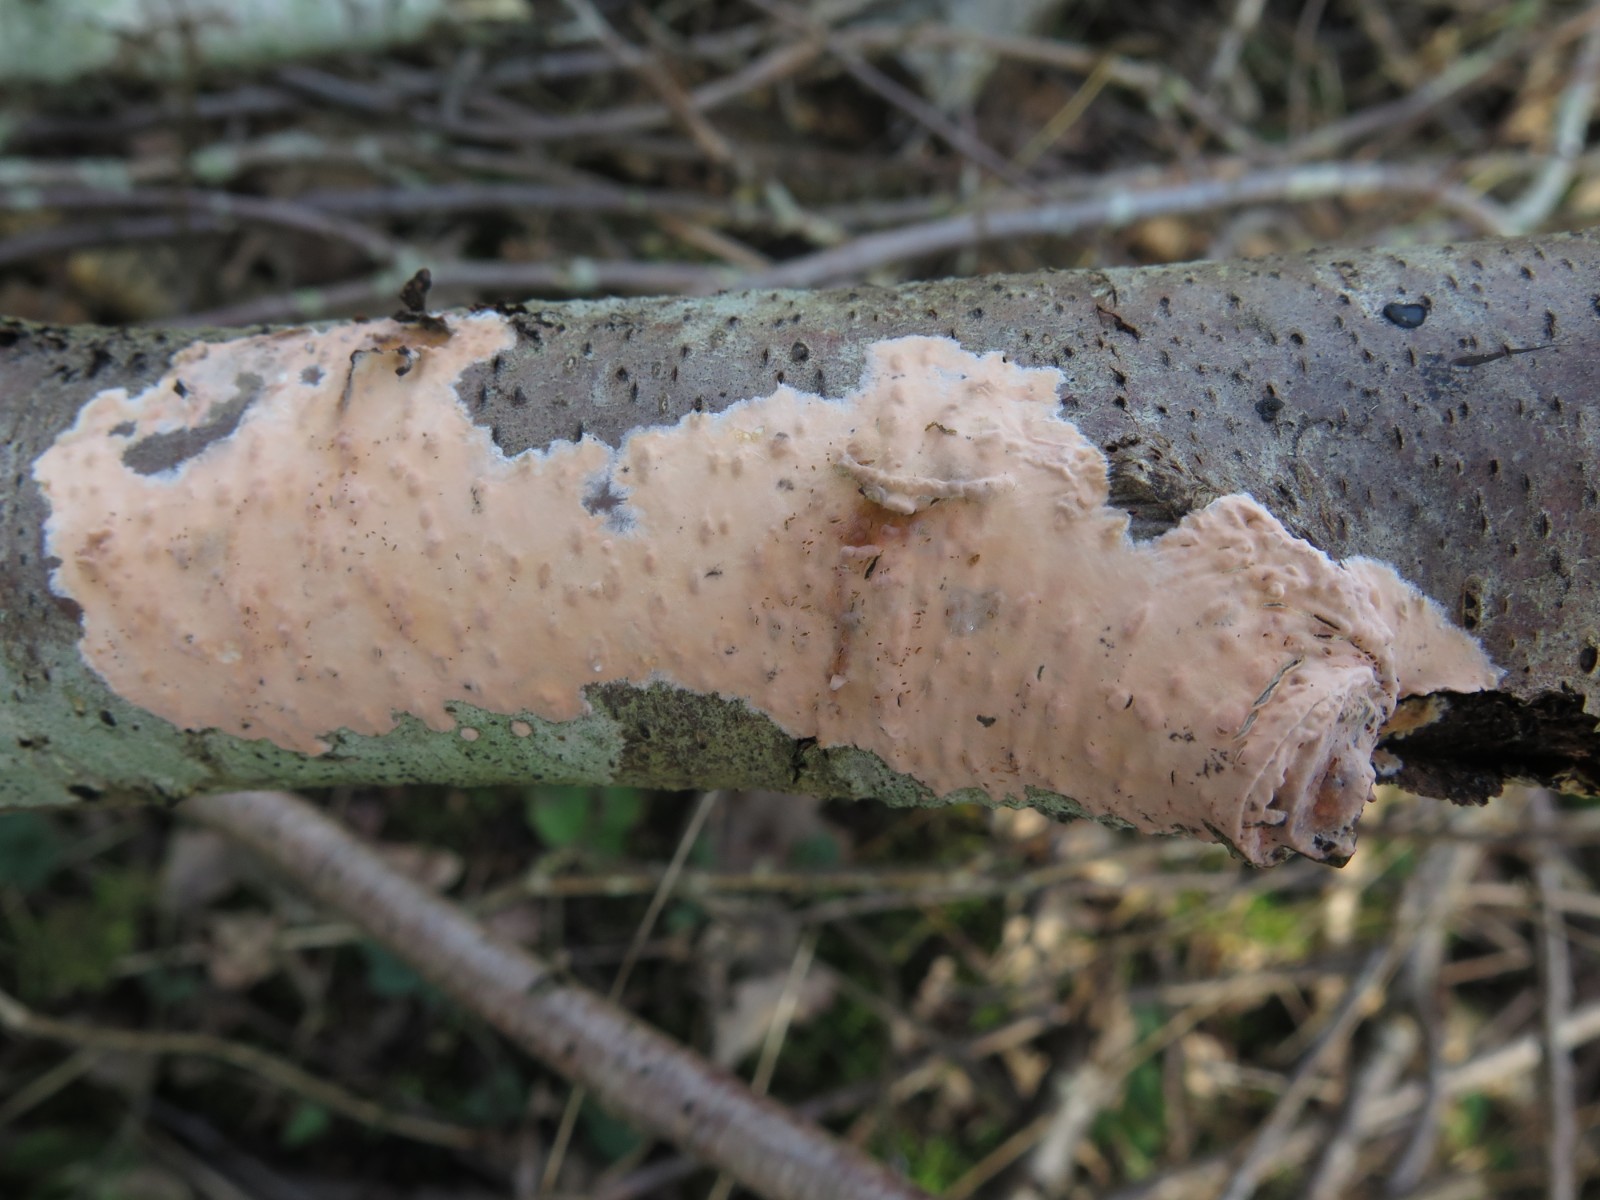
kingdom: Fungi
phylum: Basidiomycota
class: Agaricomycetes
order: Russulales
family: Peniophoraceae
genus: Peniophora
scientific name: Peniophora incarnata
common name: laksefarvet voksskind
